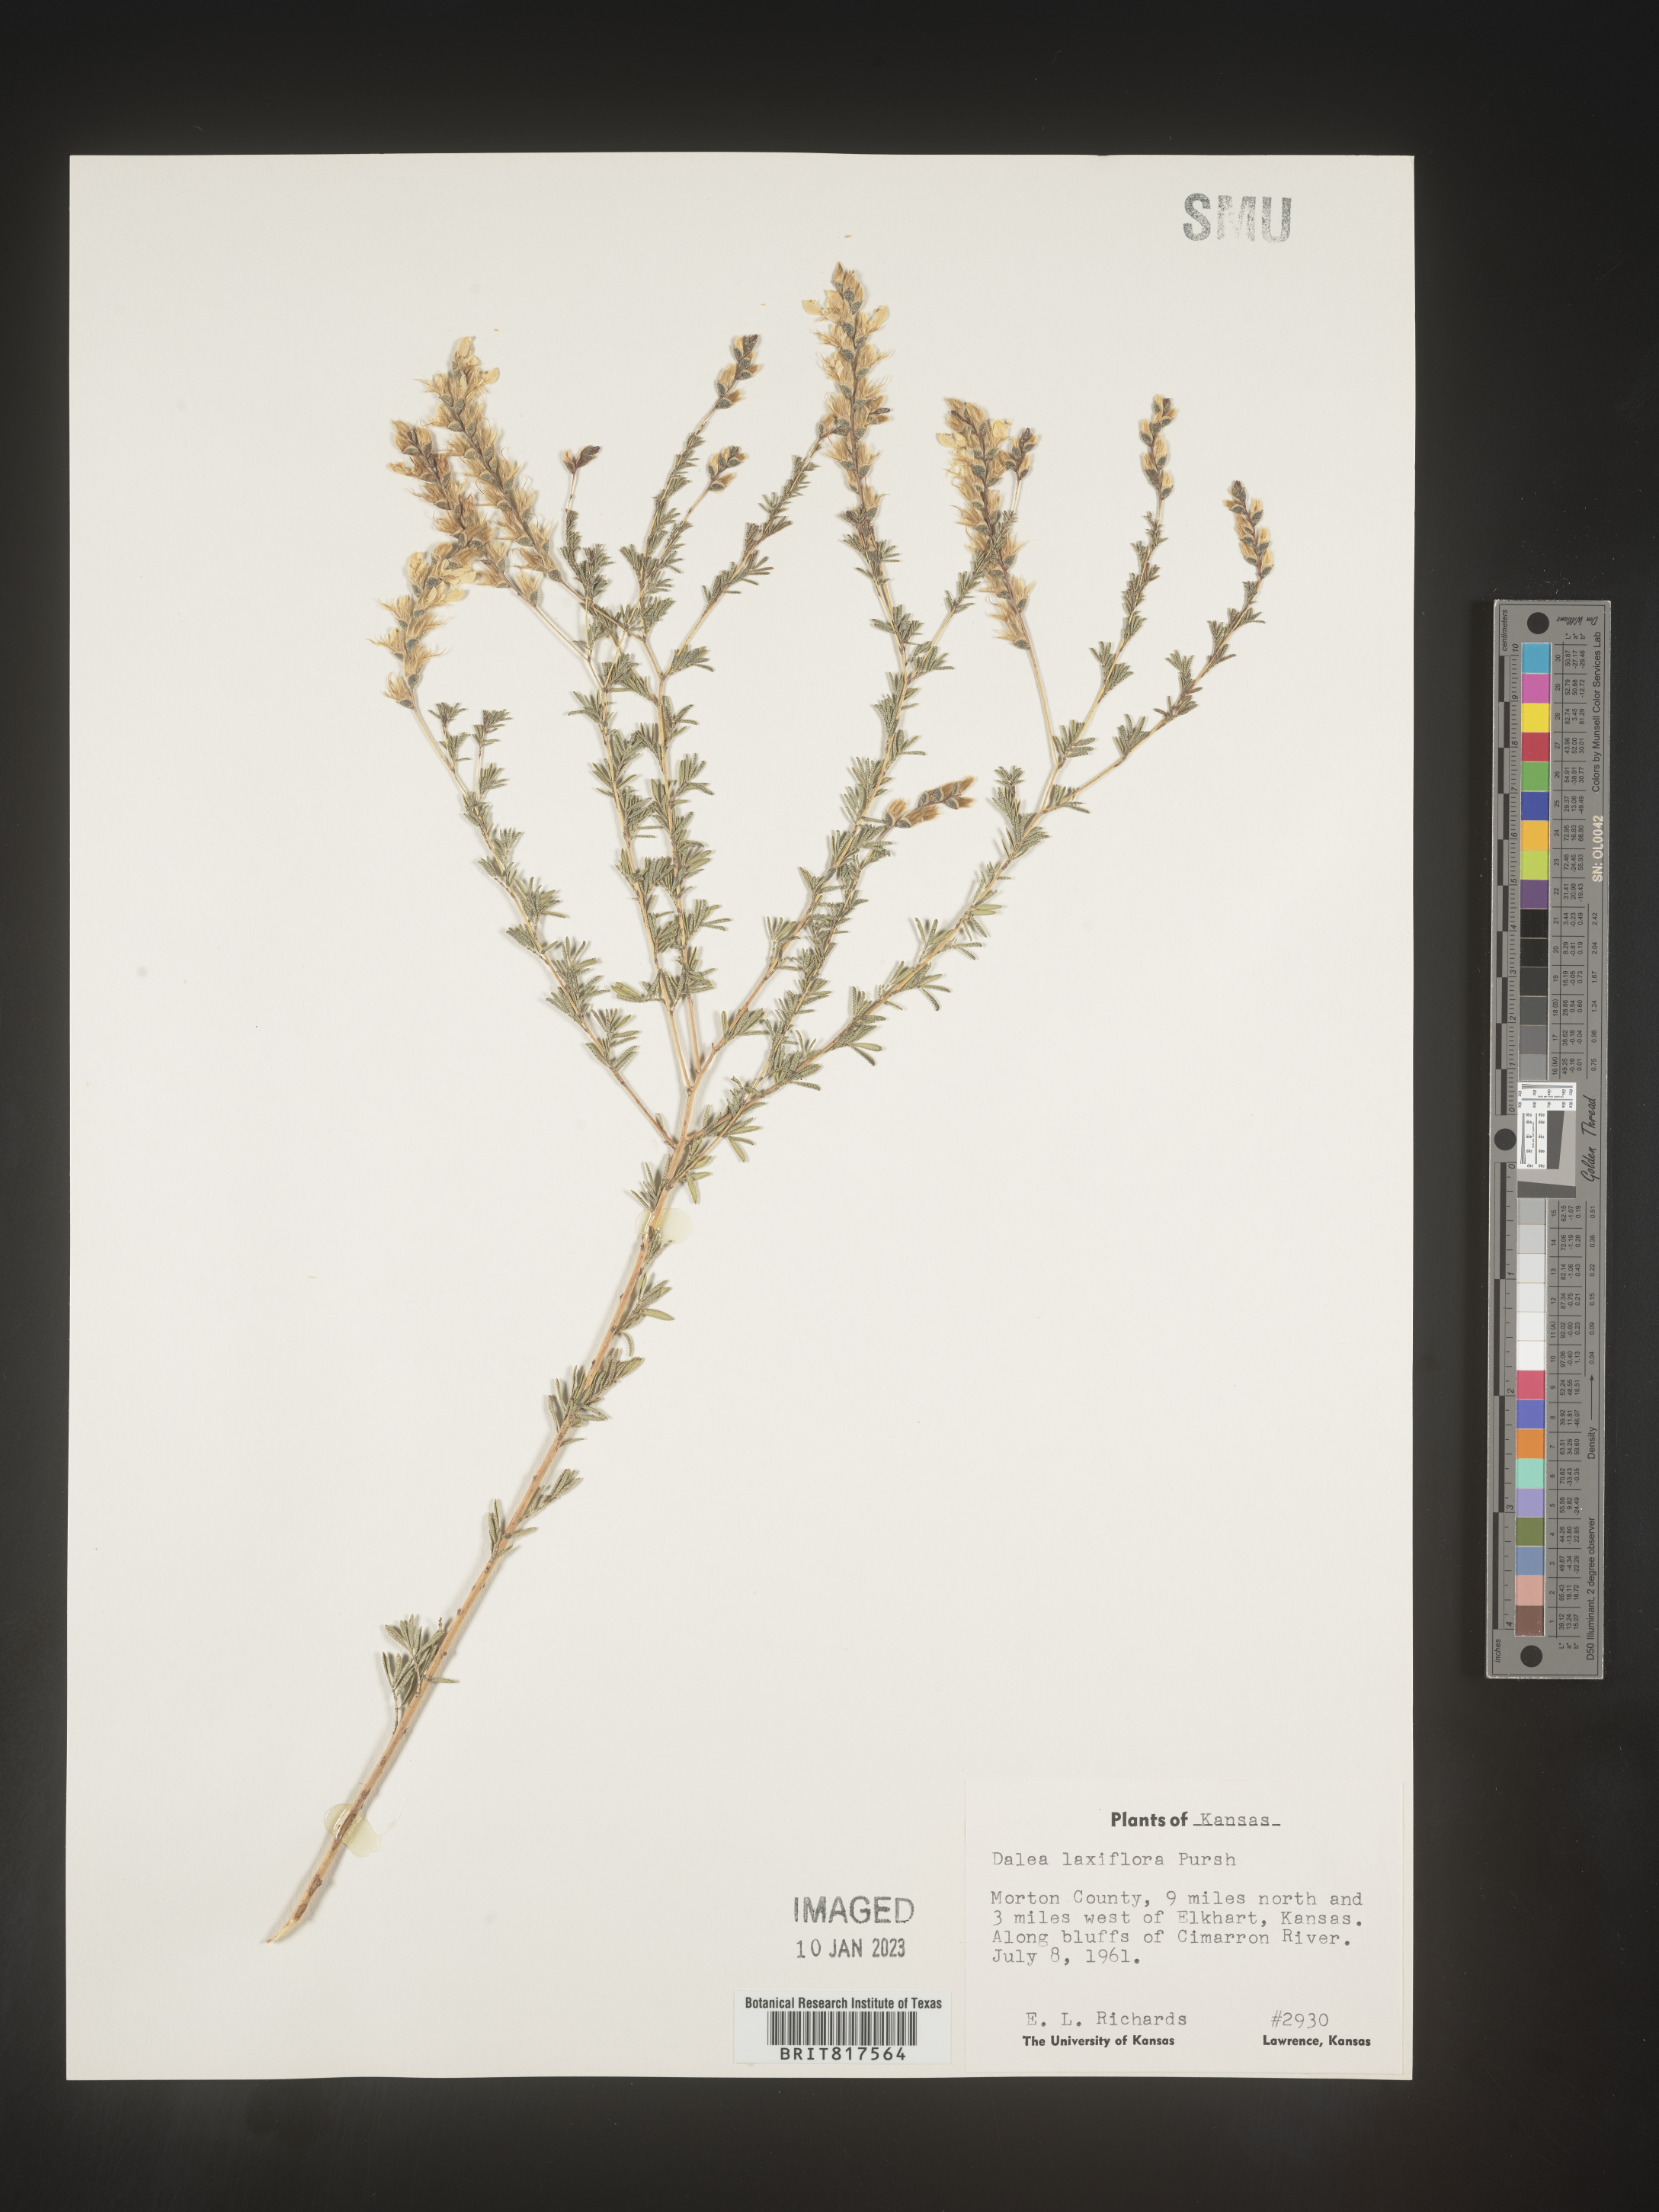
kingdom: Plantae
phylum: Tracheophyta
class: Magnoliopsida
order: Fabales
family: Fabaceae
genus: Dalea
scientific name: Dalea hegewischiana
